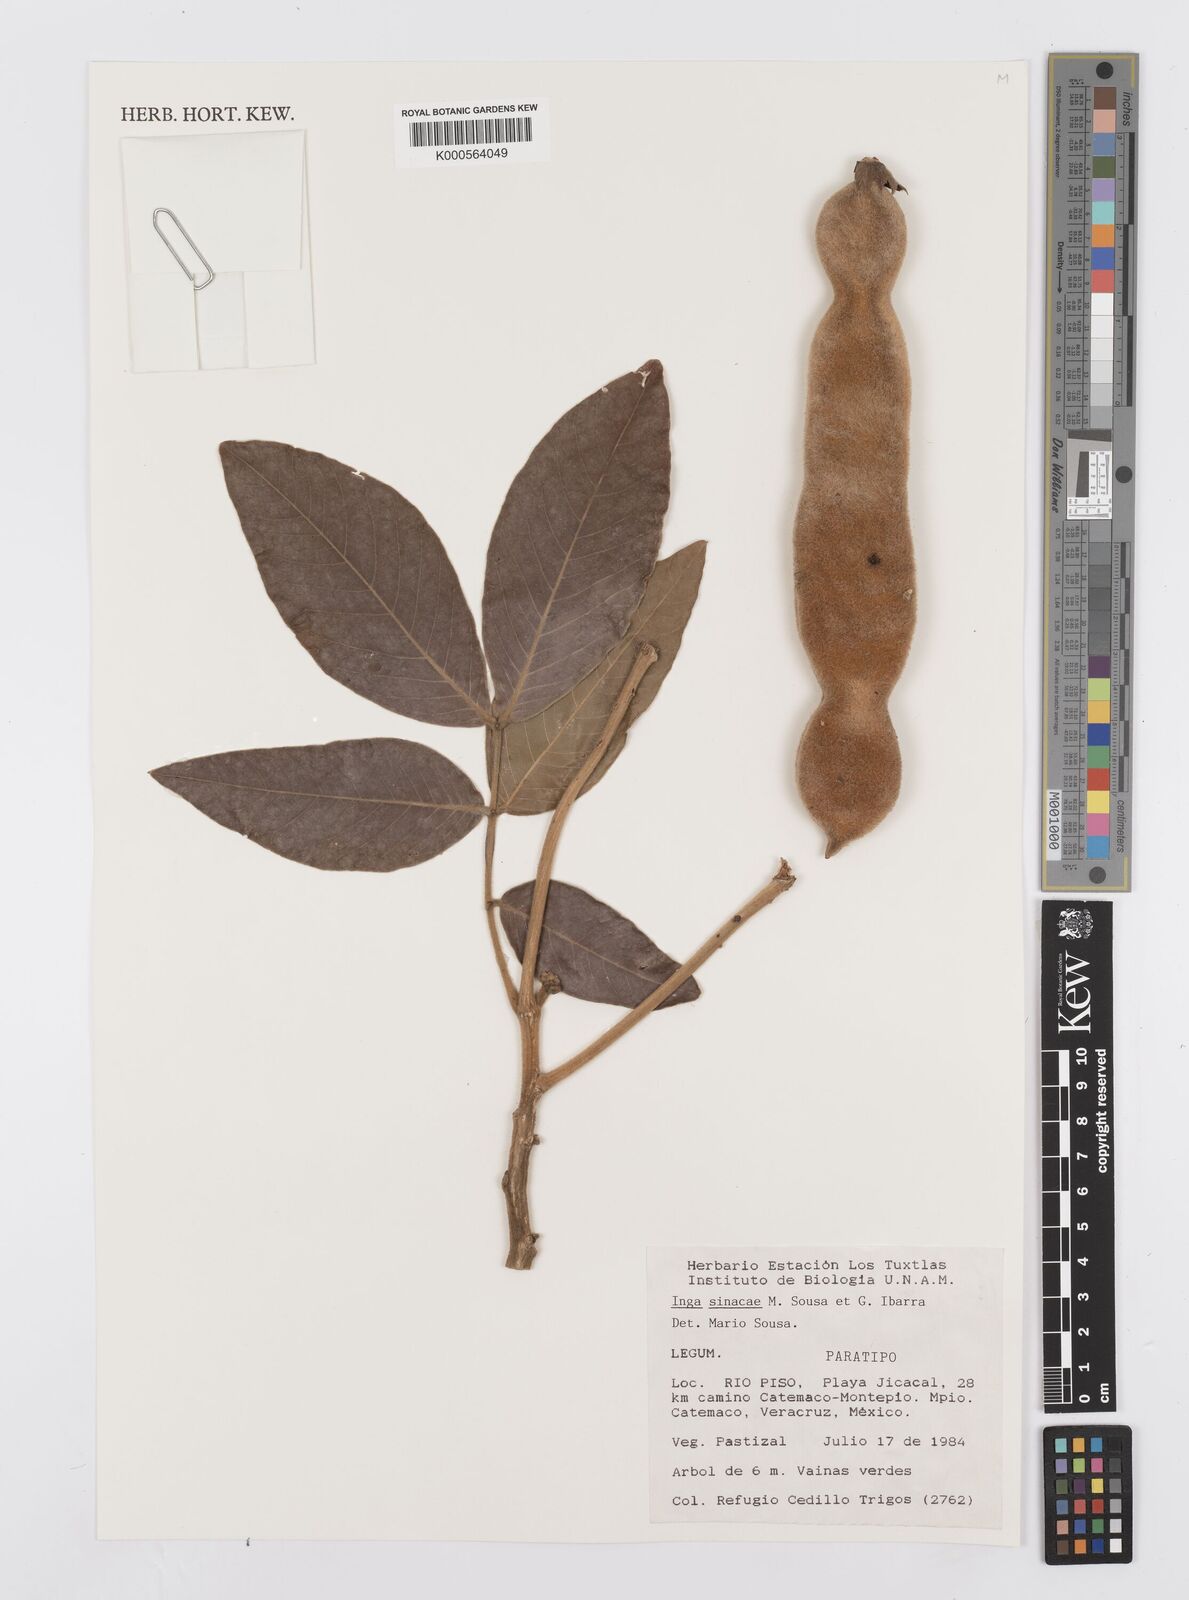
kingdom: Plantae
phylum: Tracheophyta
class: Magnoliopsida
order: Fabales
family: Fabaceae
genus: Inga
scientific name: Inga
